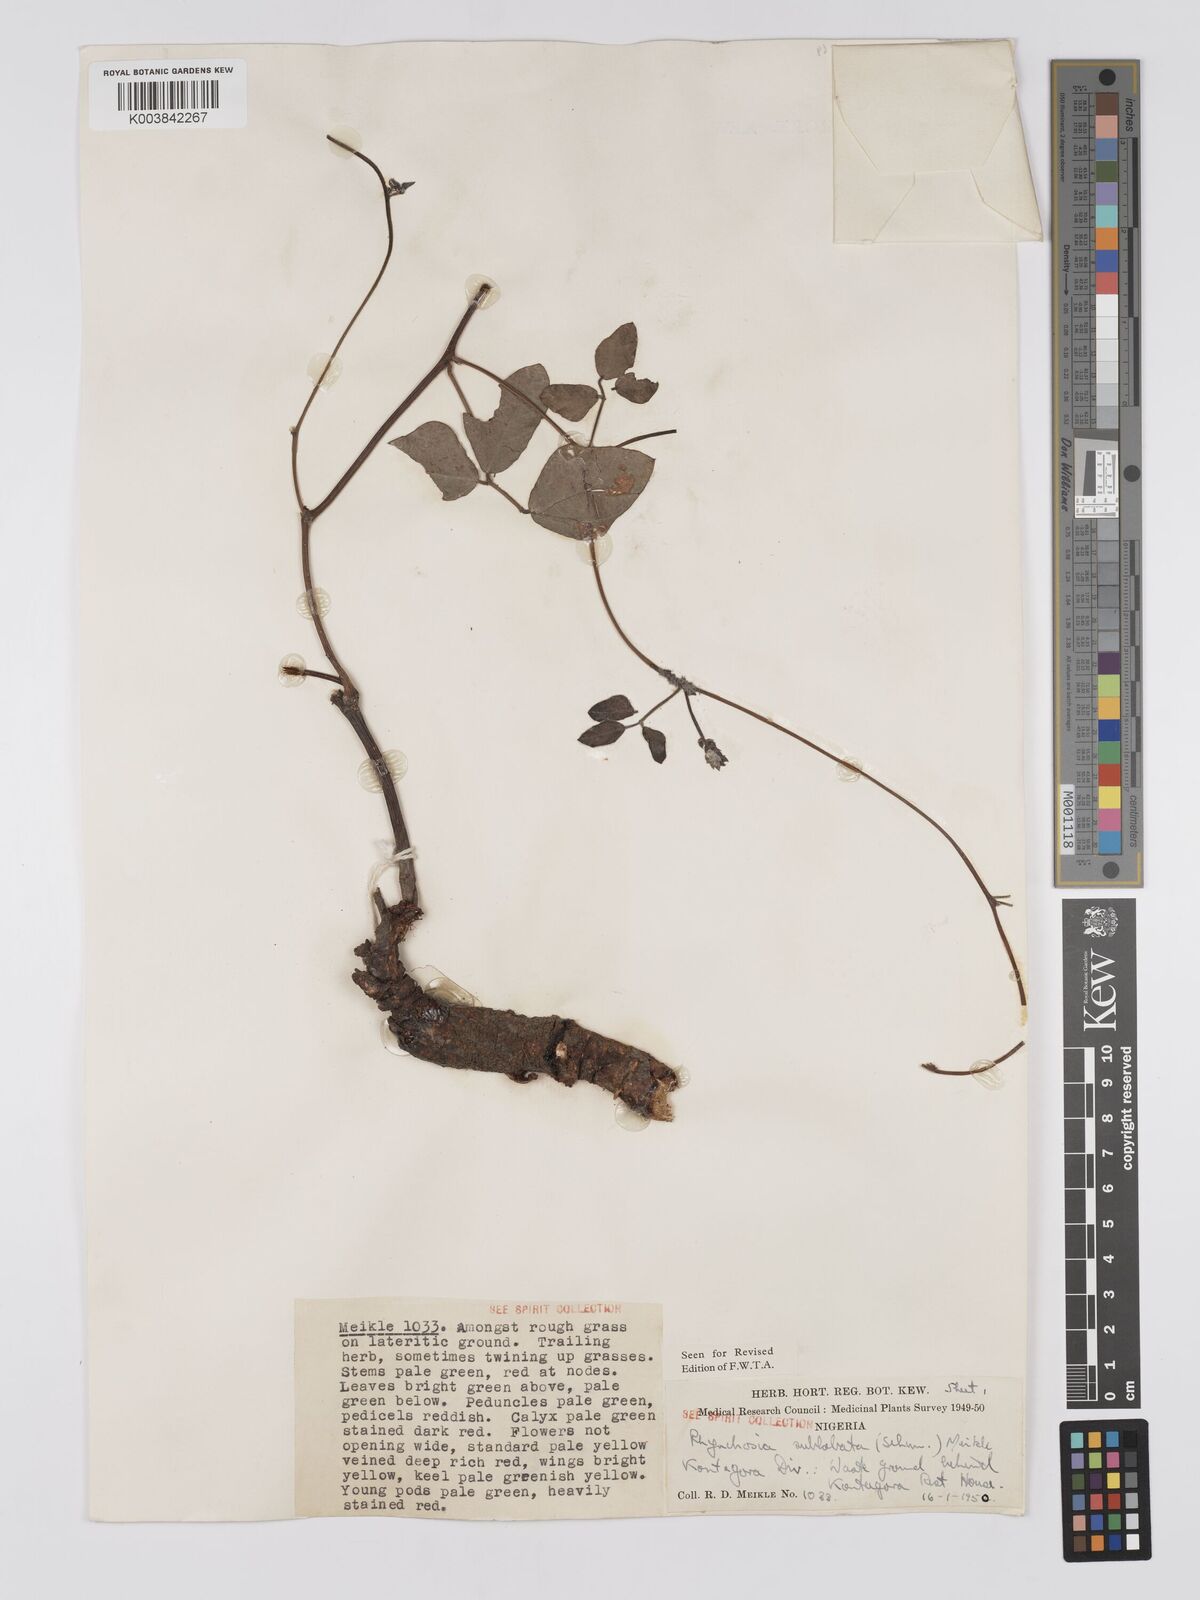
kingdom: Plantae
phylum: Tracheophyta
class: Magnoliopsida
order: Fabales
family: Fabaceae
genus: Rhynchosia
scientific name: Rhynchosia sublobata
